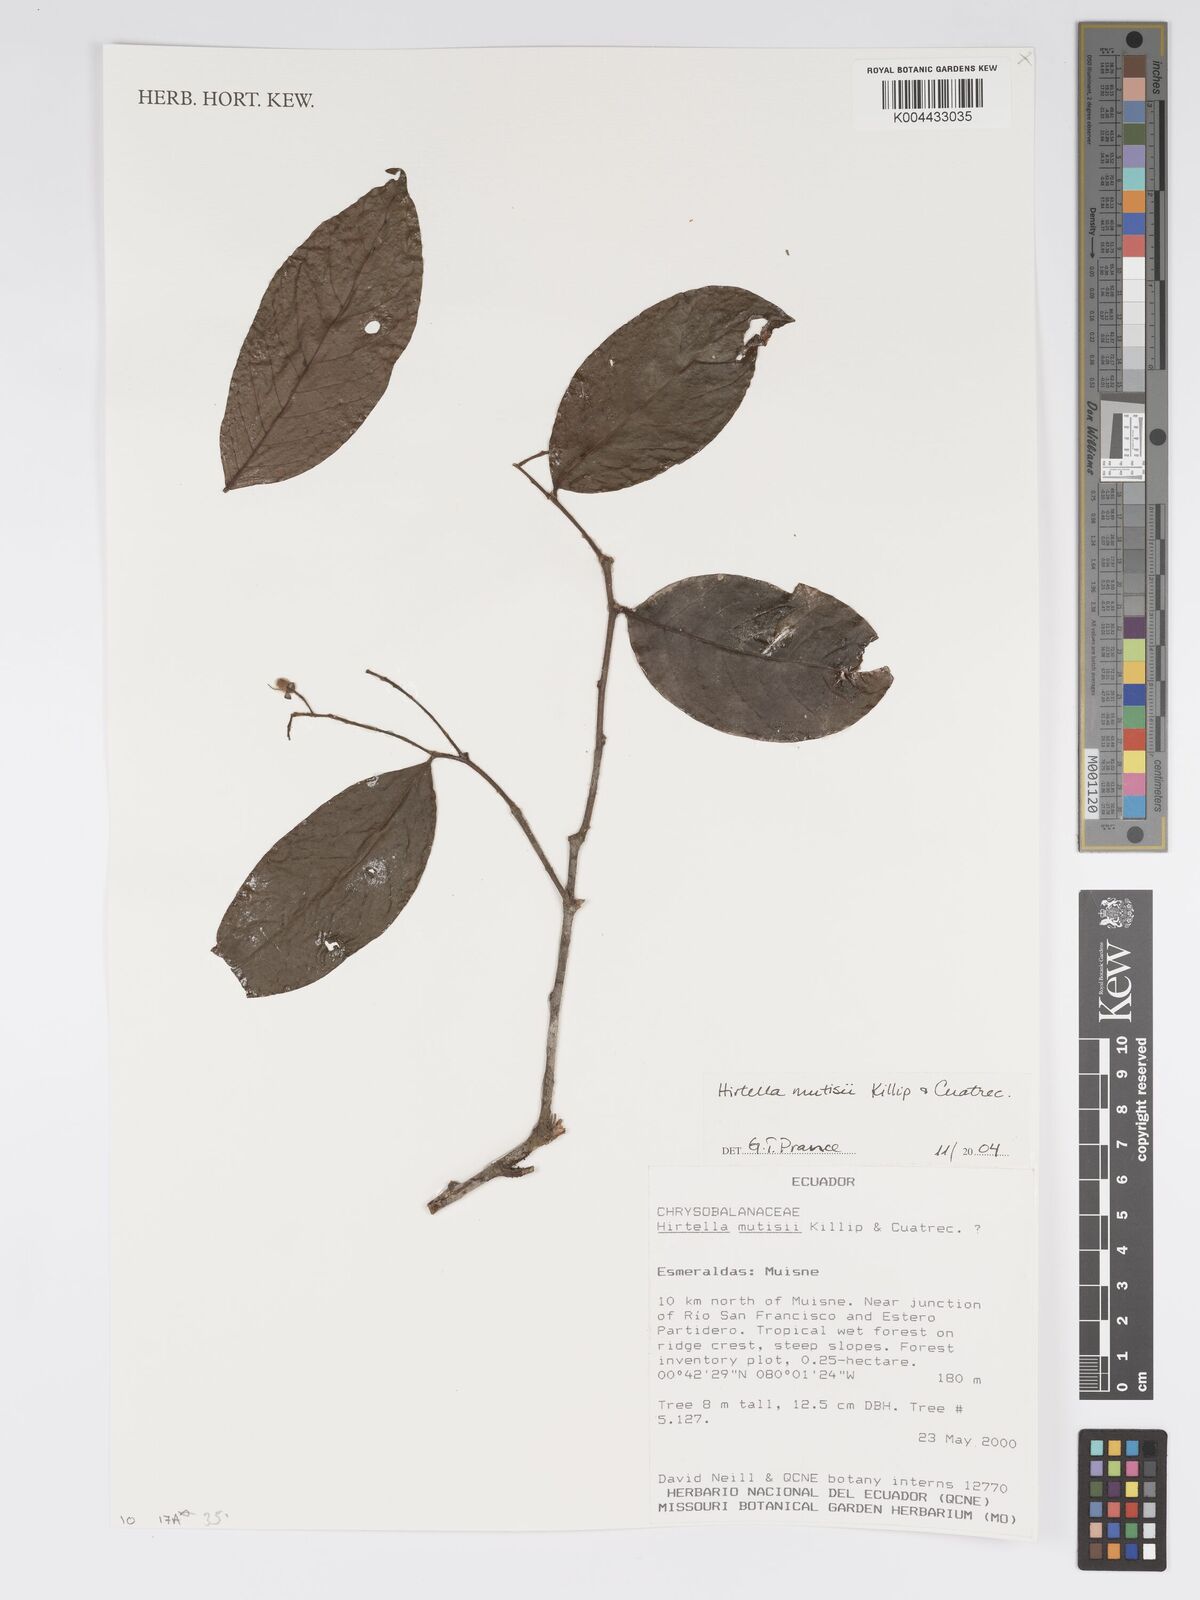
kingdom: Plantae
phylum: Tracheophyta
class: Magnoliopsida
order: Malpighiales
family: Chrysobalanaceae
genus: Hirtella
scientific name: Hirtella mutisii
